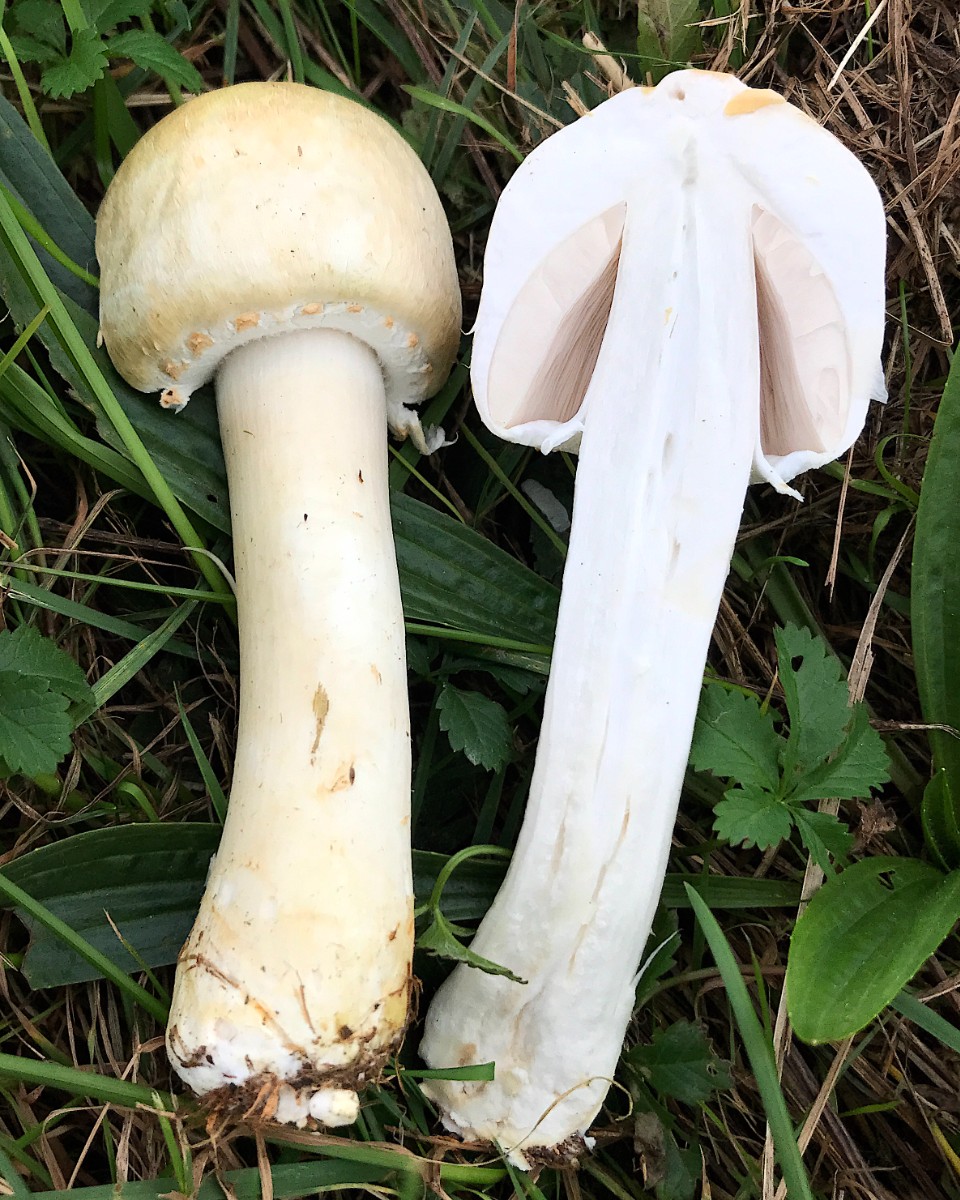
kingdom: Fungi
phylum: Basidiomycota
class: Agaricomycetes
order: Agaricales
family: Agaricaceae
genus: Agaricus
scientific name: Agaricus arvensis
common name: ager-champignon
